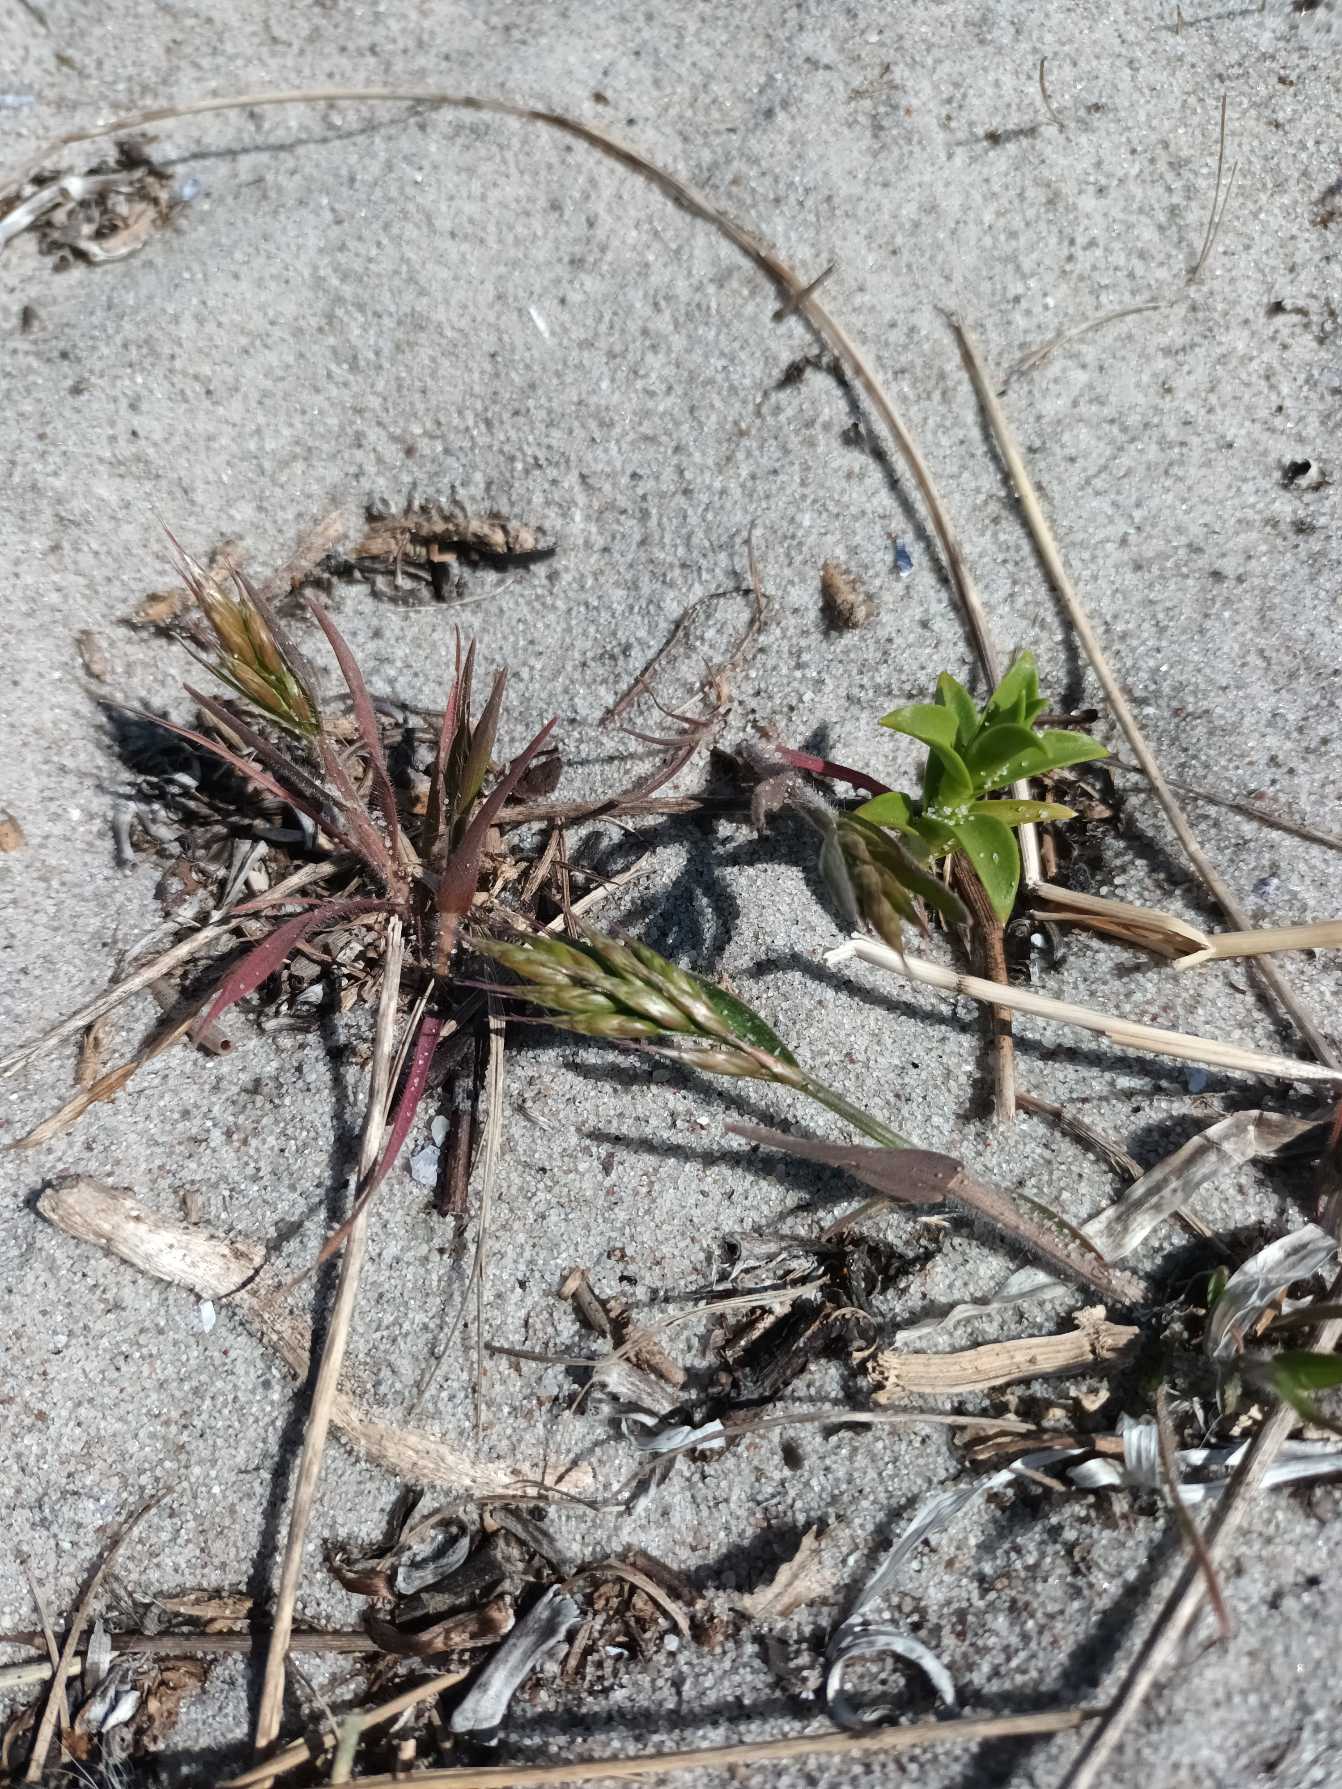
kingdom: Plantae
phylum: Tracheophyta
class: Liliopsida
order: Poales
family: Poaceae
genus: Bromus
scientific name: Bromus hordeaceus
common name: Blød hejre
